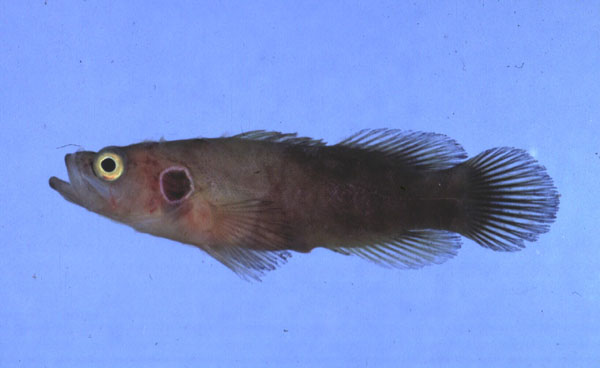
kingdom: Animalia
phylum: Chordata
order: Perciformes
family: Serranidae
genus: Grammistops
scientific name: Grammistops ocellatus
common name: Ocellate soapfish
